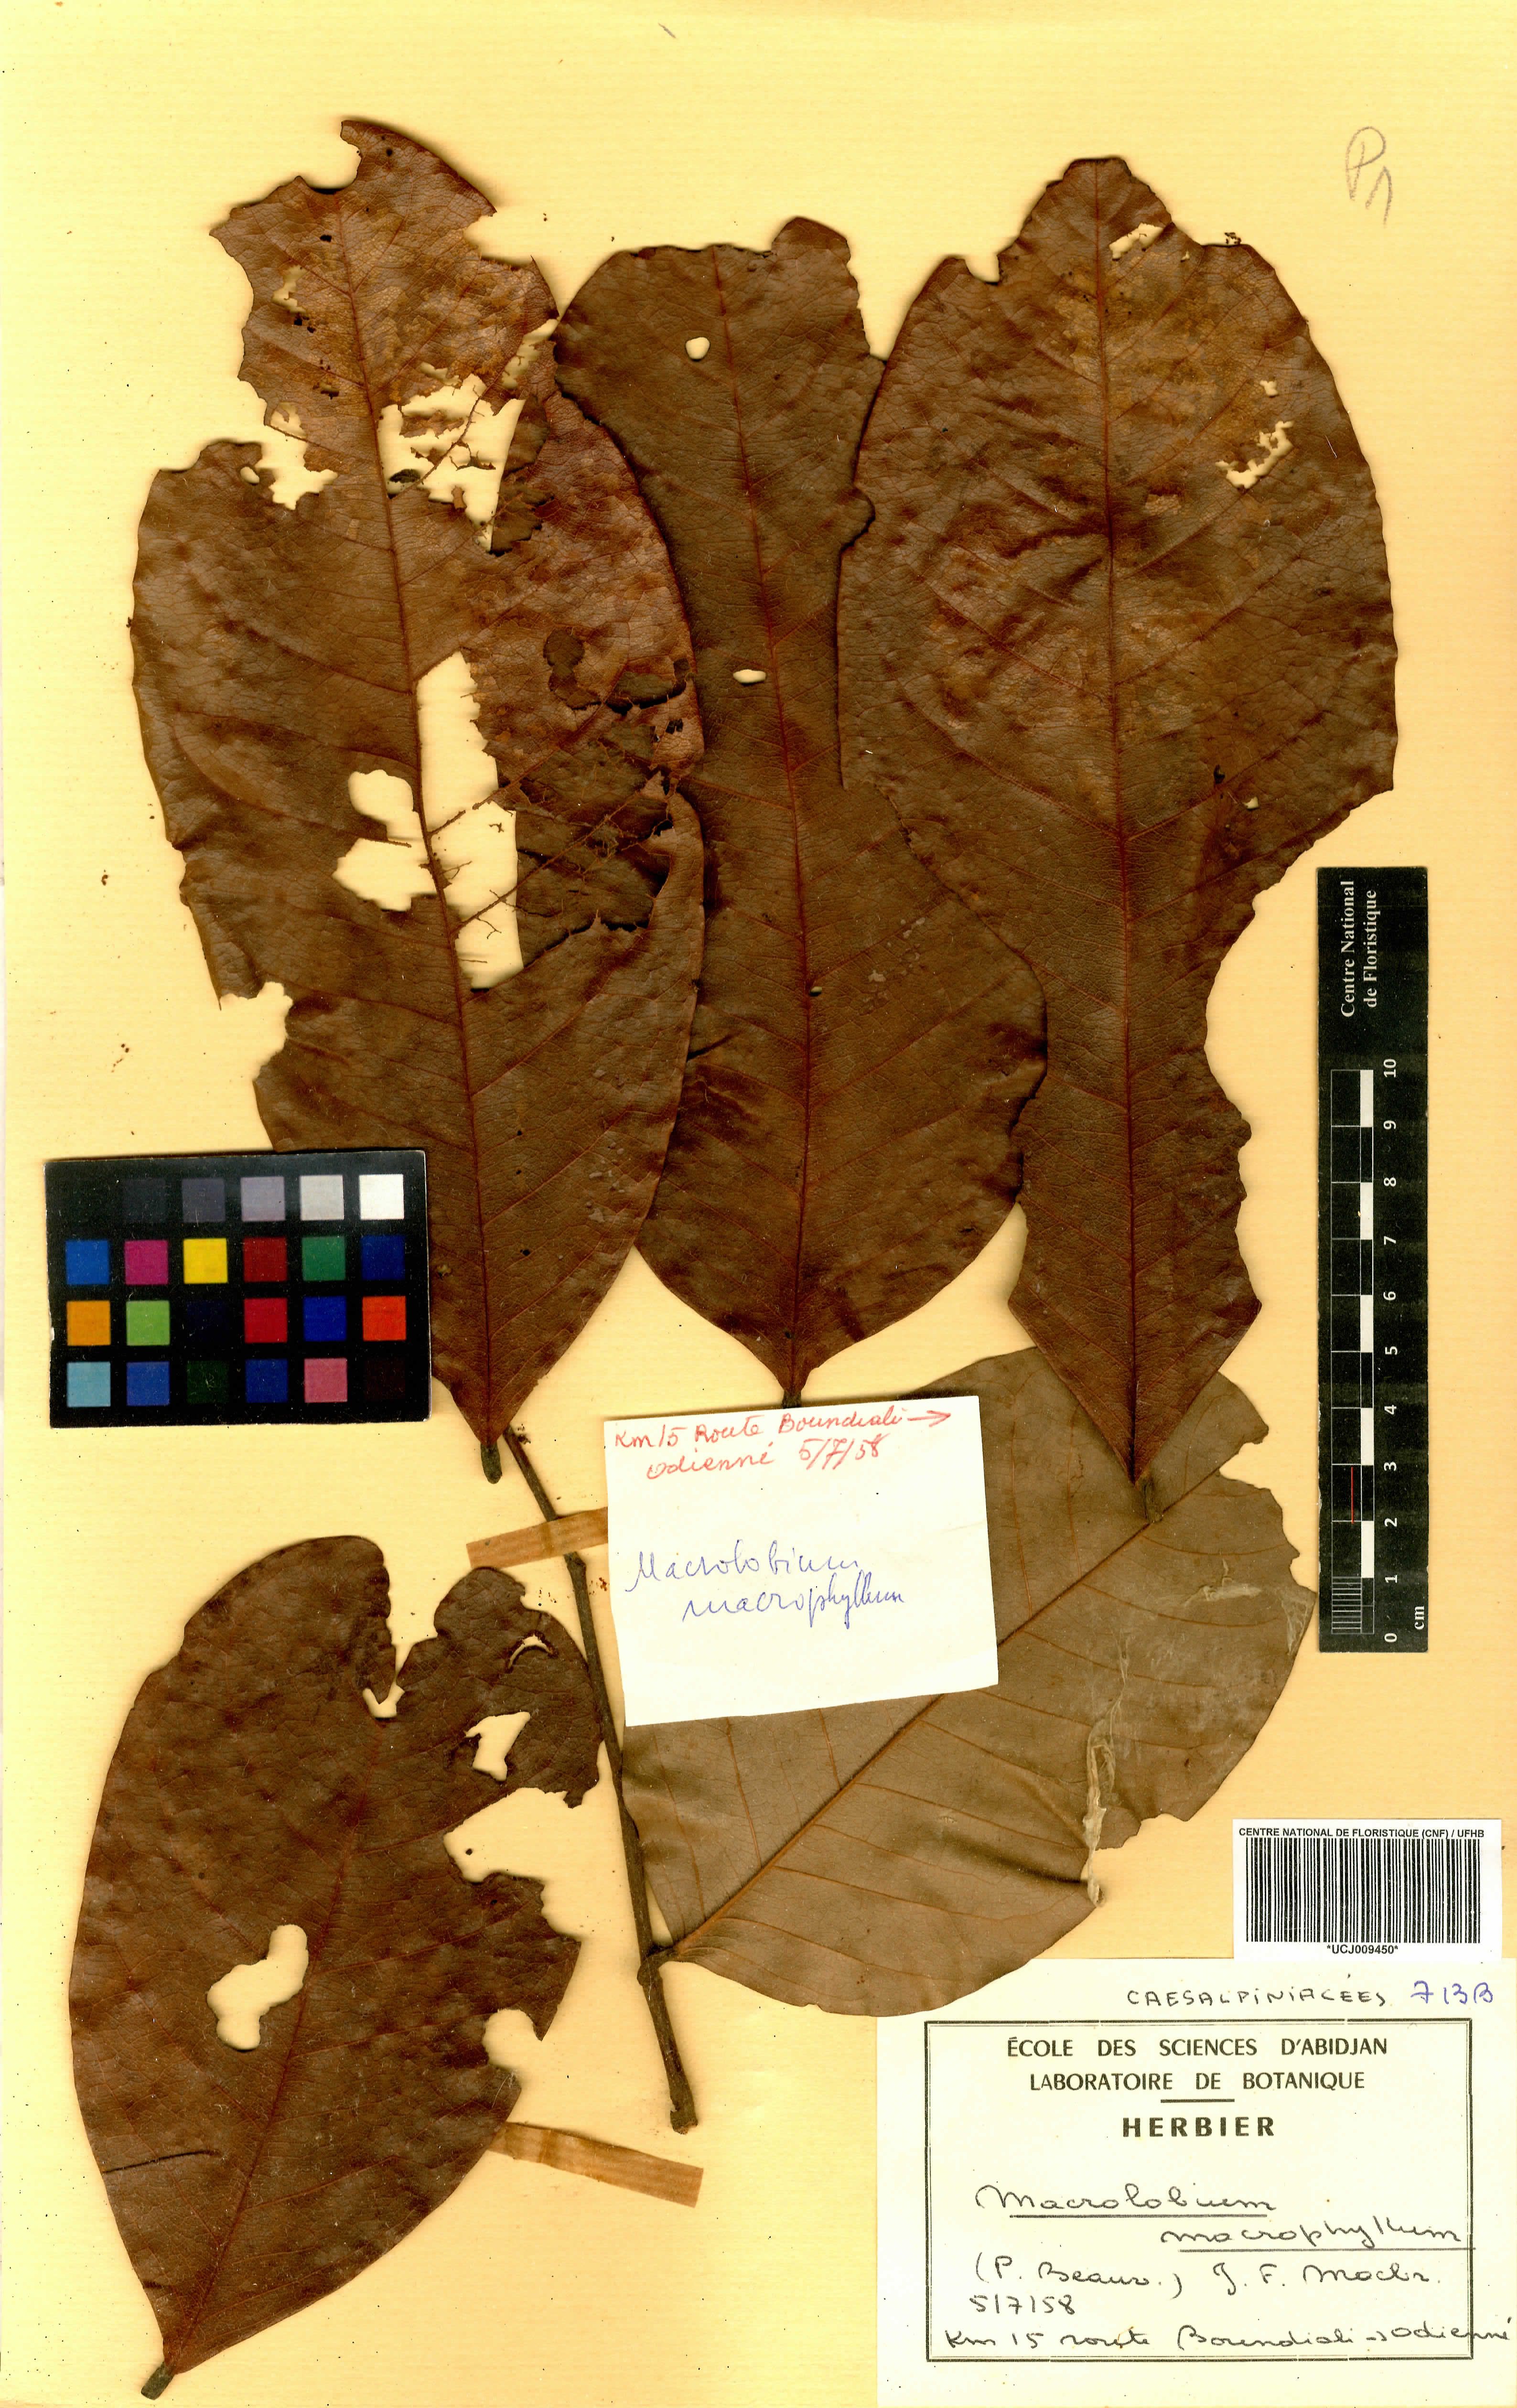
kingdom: Plantae
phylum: Tracheophyta
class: Magnoliopsida
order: Fabales
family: Fabaceae
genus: Anthonotha
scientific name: Anthonotha macrophylla
